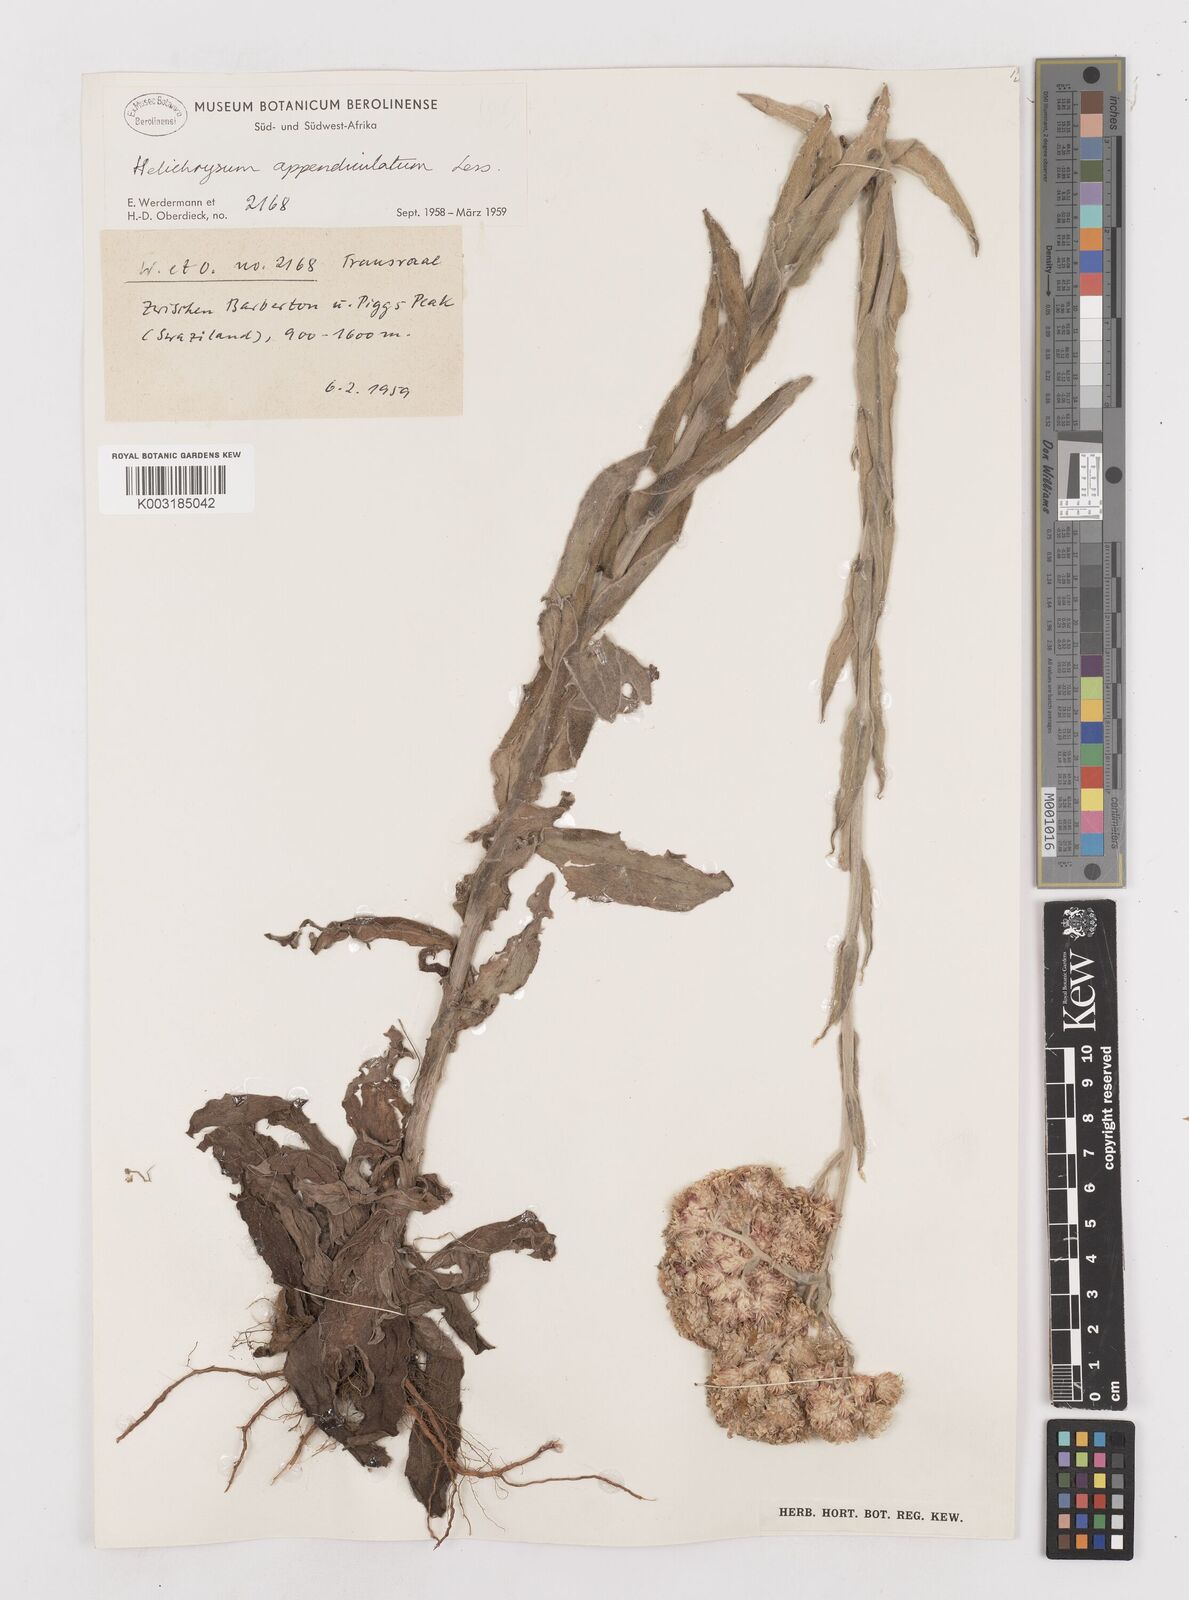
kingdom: Plantae
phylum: Tracheophyta
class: Magnoliopsida
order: Asterales
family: Asteraceae
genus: Helichrysum
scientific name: Helichrysum appendiculatum
